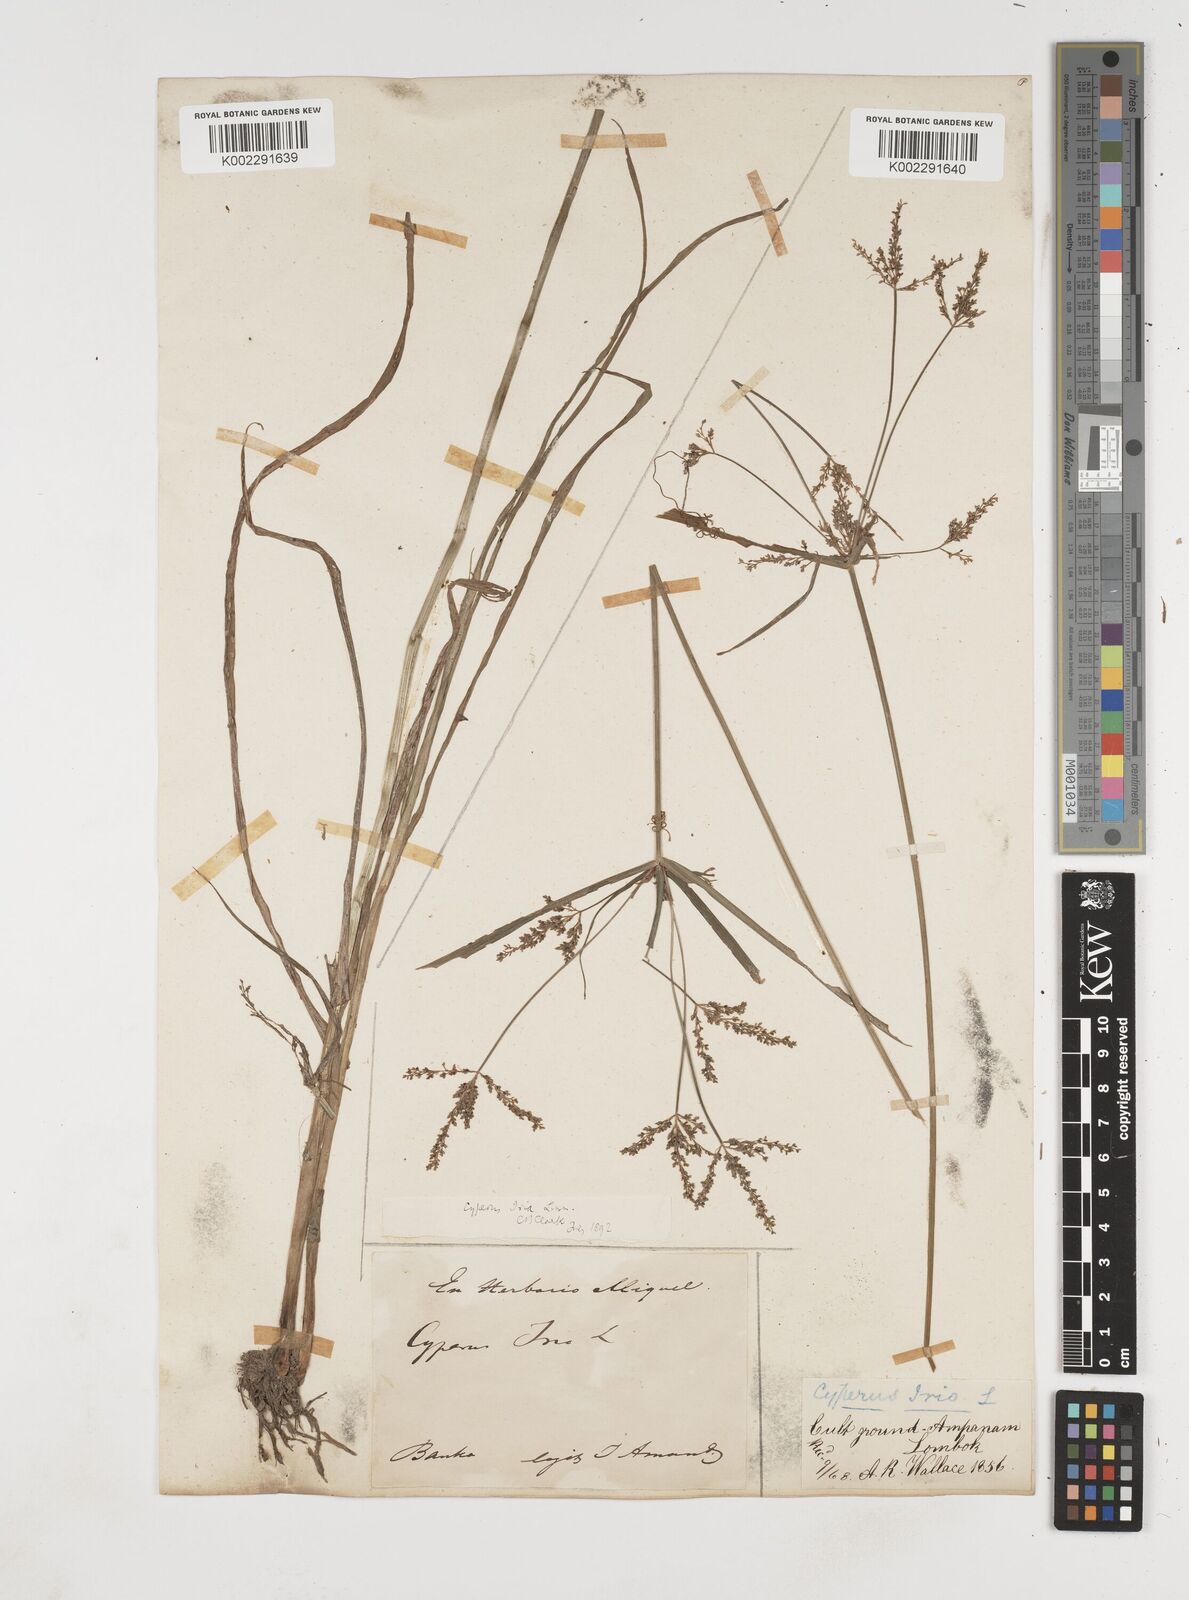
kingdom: Plantae
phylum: Tracheophyta
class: Liliopsida
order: Poales
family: Cyperaceae
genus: Cyperus
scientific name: Cyperus iria
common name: Ricefield flatsedge
